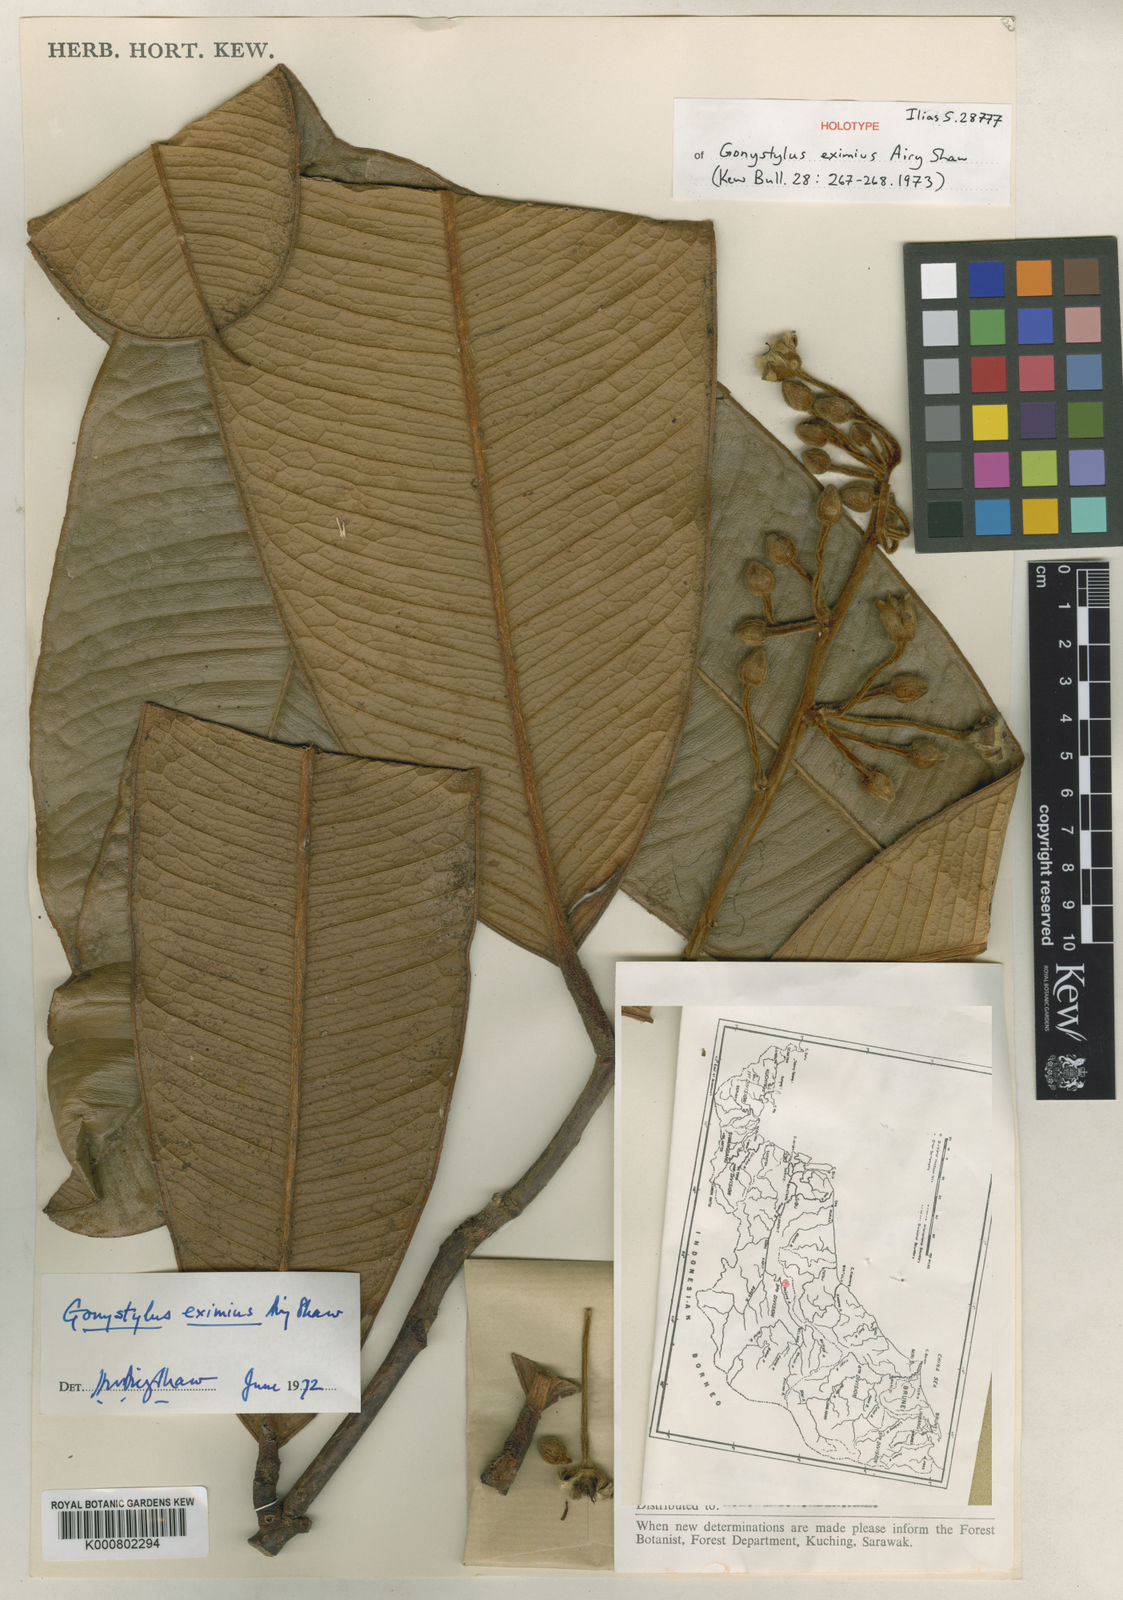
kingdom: Plantae
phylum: Tracheophyta
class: Magnoliopsida
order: Malvales
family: Thymelaeaceae
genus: Gonystylus
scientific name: Gonystylus eximius
